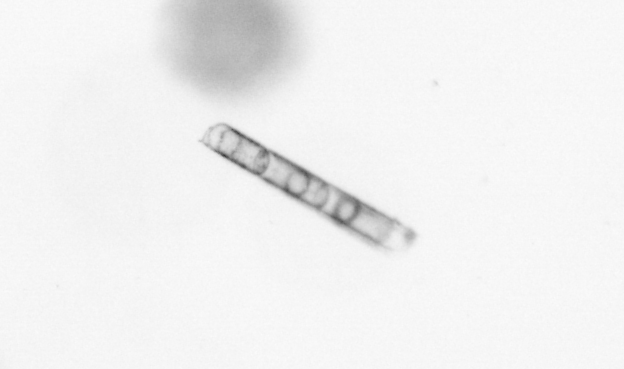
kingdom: Chromista
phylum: Ochrophyta
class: Bacillariophyceae
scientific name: Bacillariophyceae
